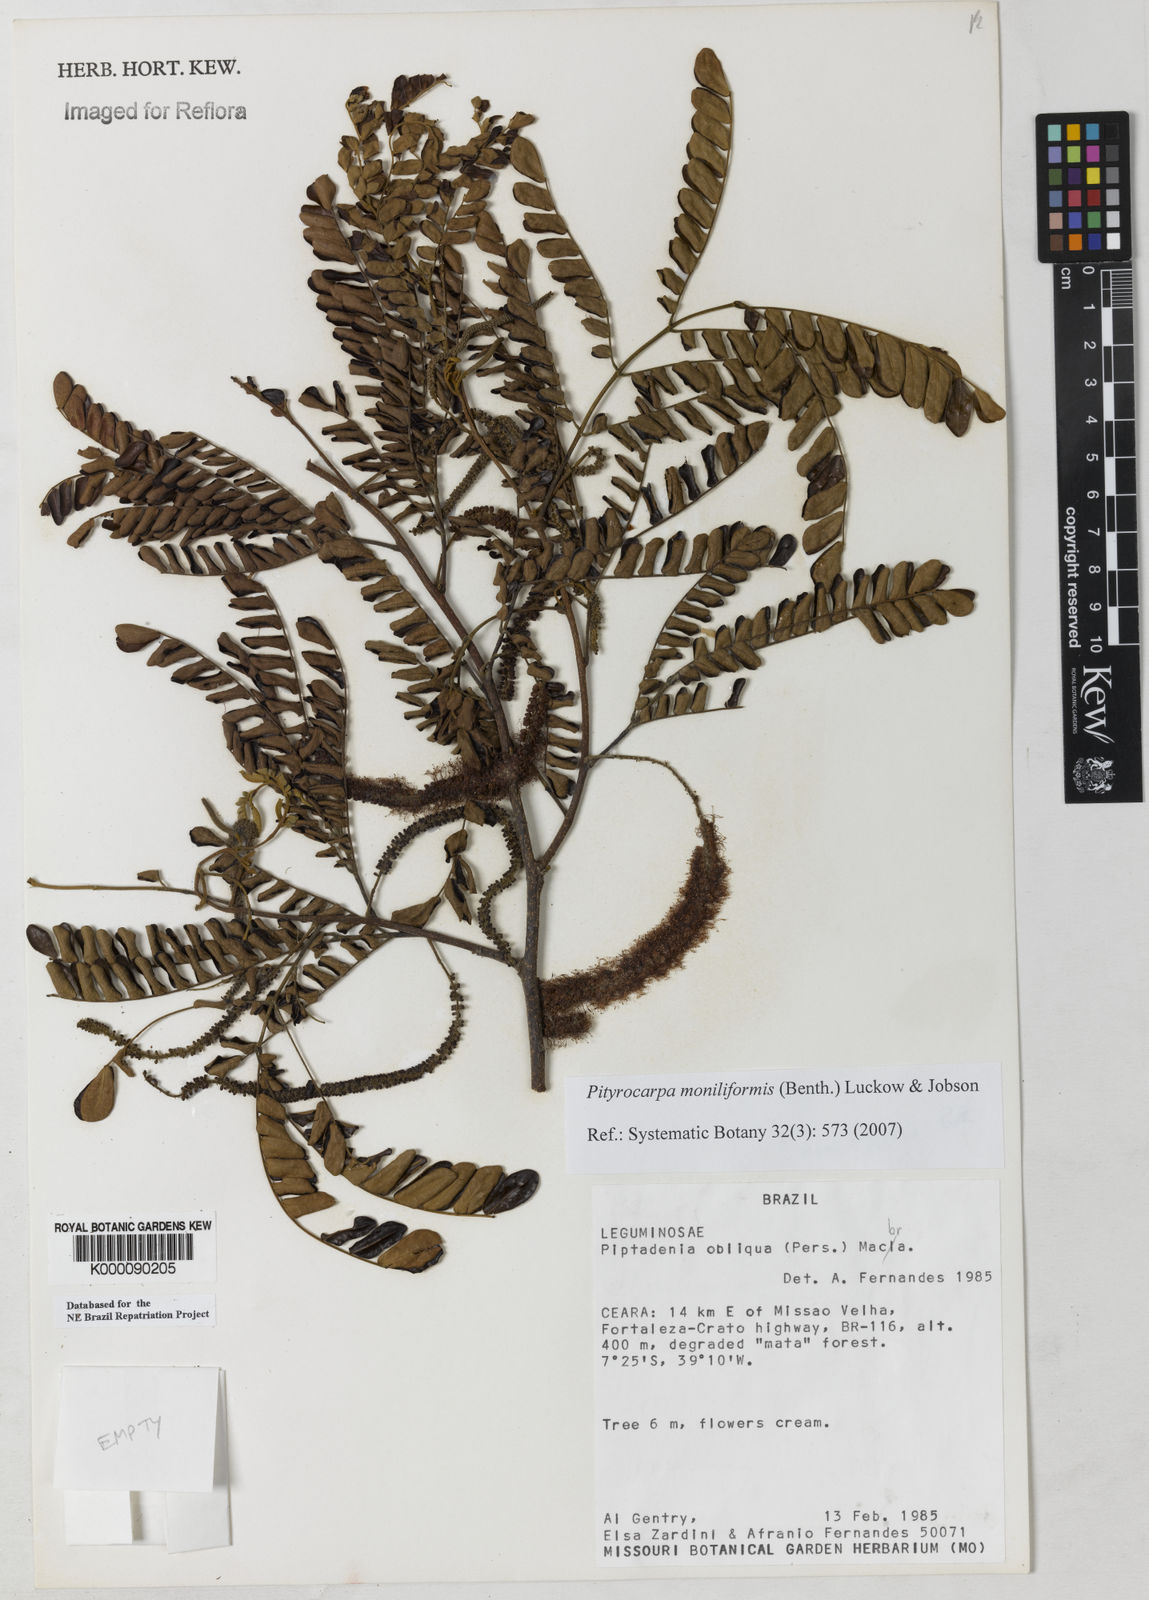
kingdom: Plantae
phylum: Tracheophyta
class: Magnoliopsida
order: Fabales
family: Fabaceae
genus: Pityrocarpa
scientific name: Pityrocarpa moniliformis
